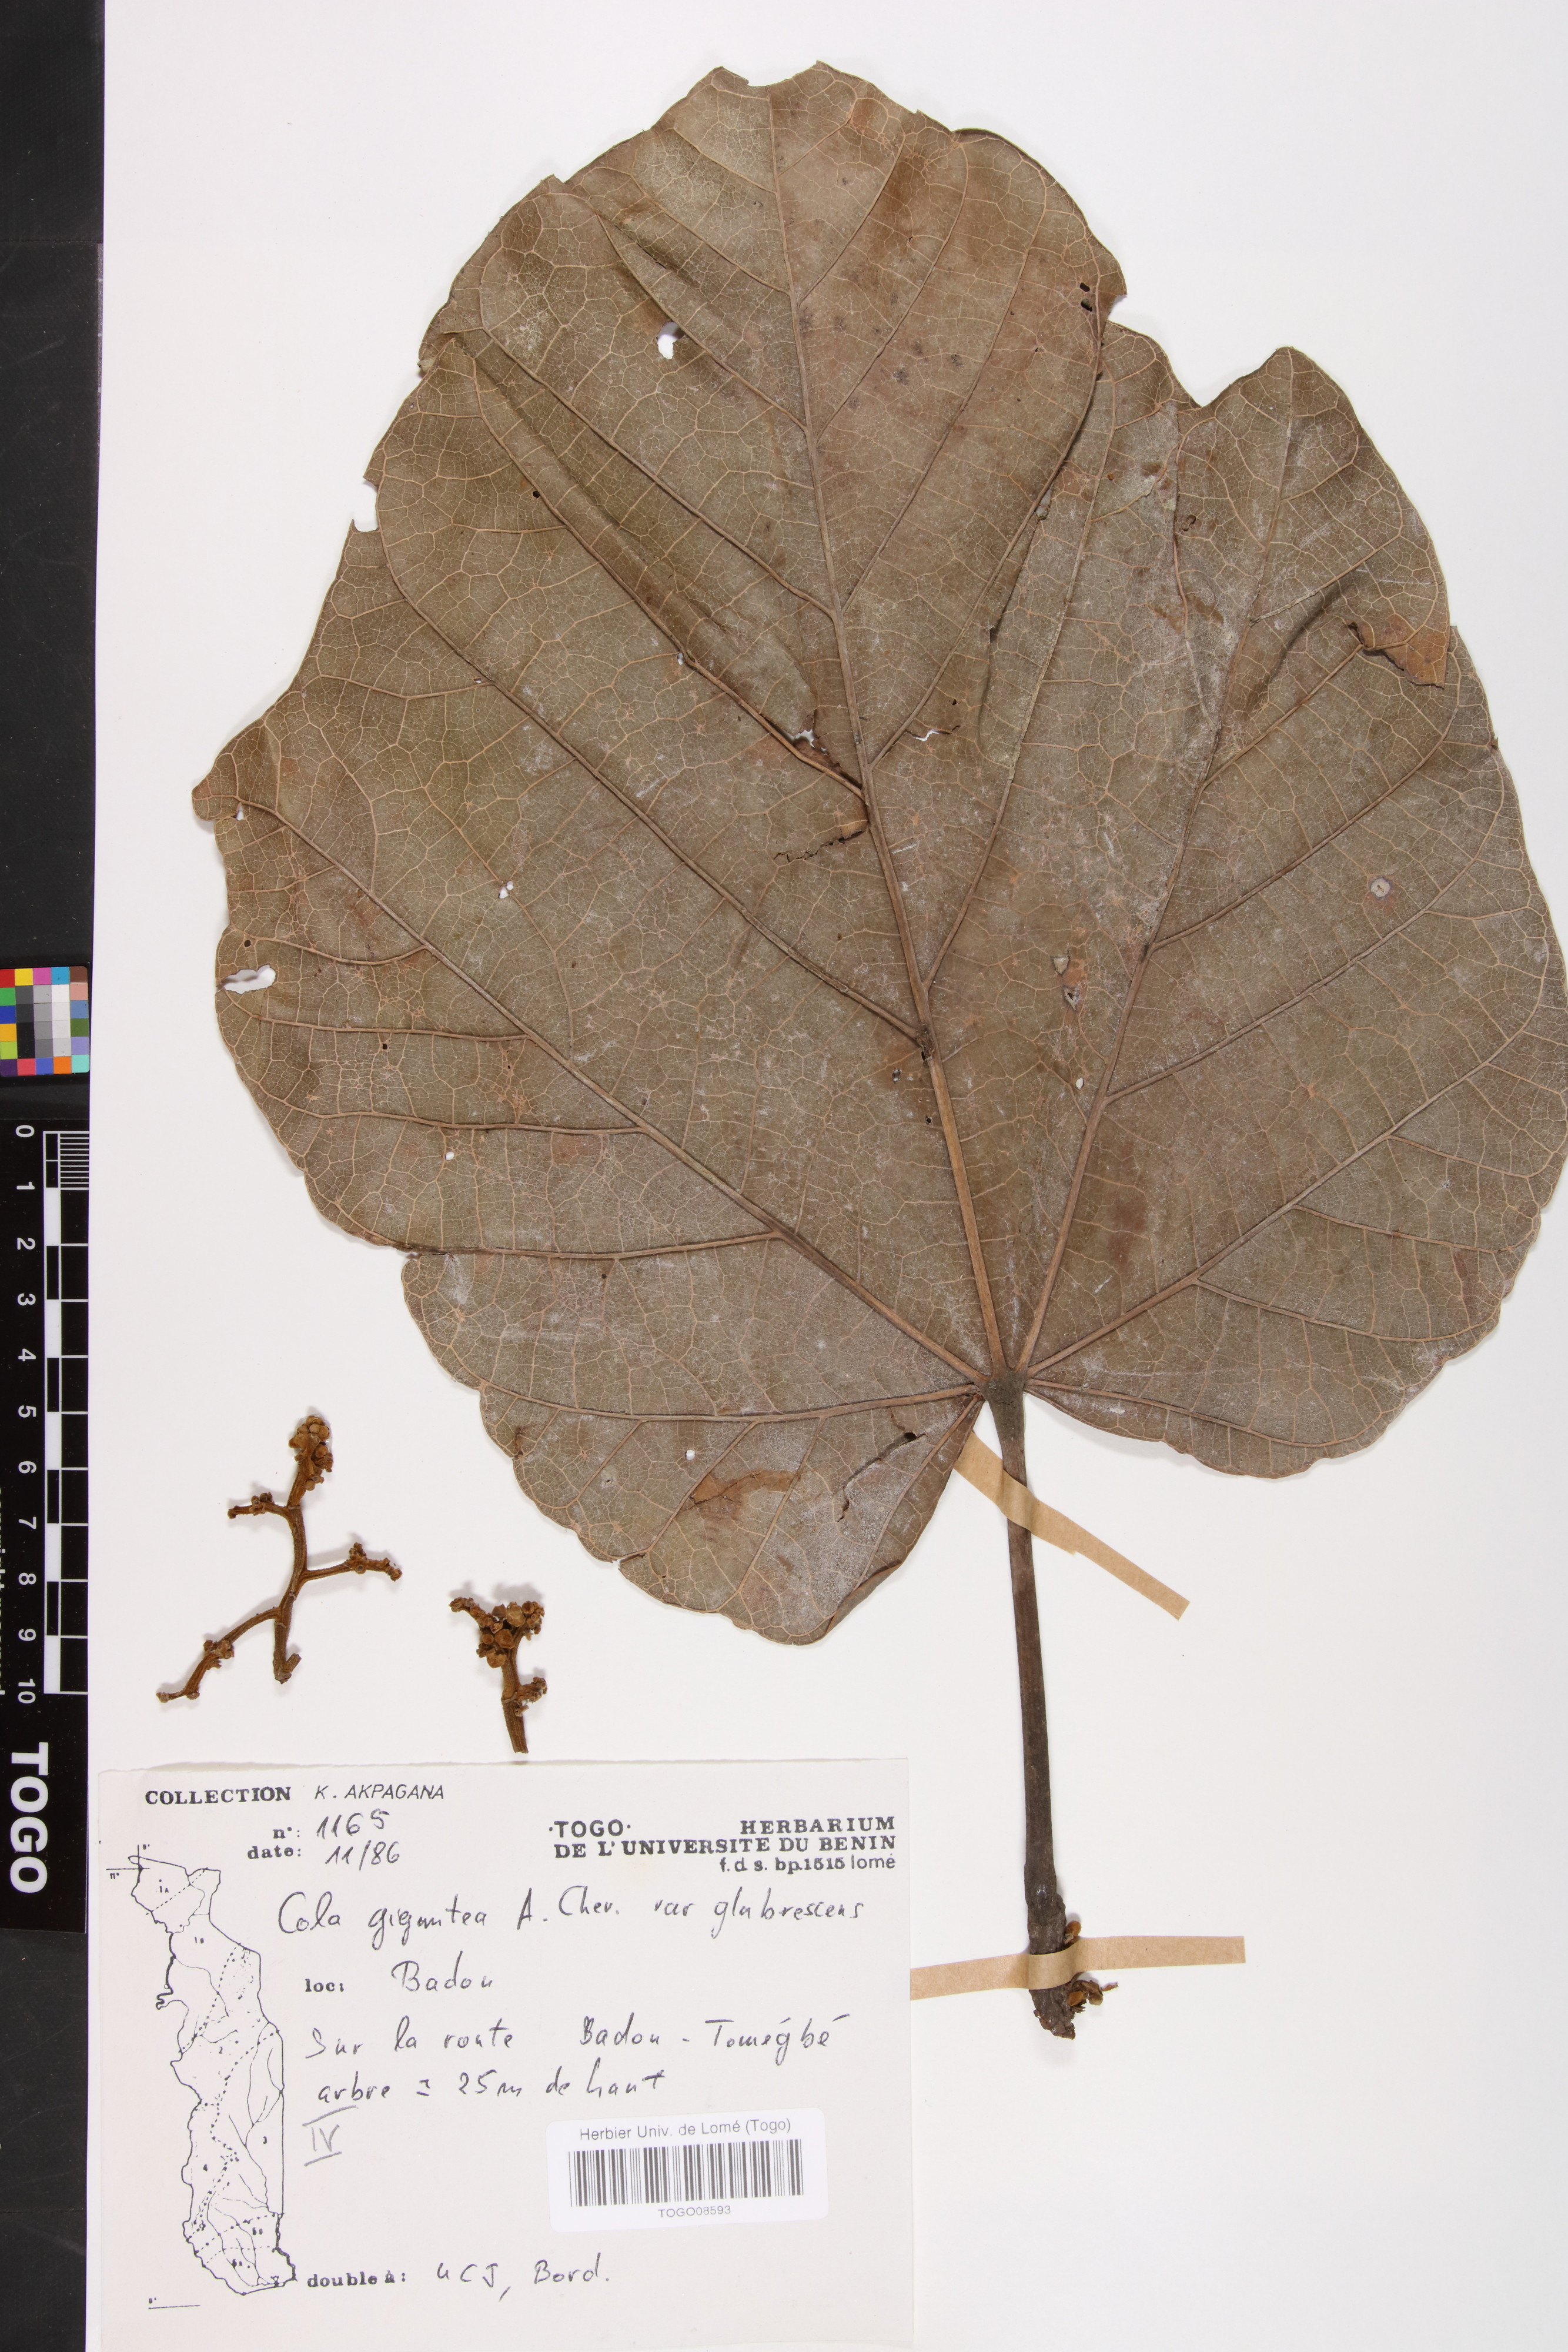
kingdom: Plantae
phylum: Tracheophyta
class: Magnoliopsida
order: Malvales
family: Malvaceae
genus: Cola
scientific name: Cola gigantea
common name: Giant cola
